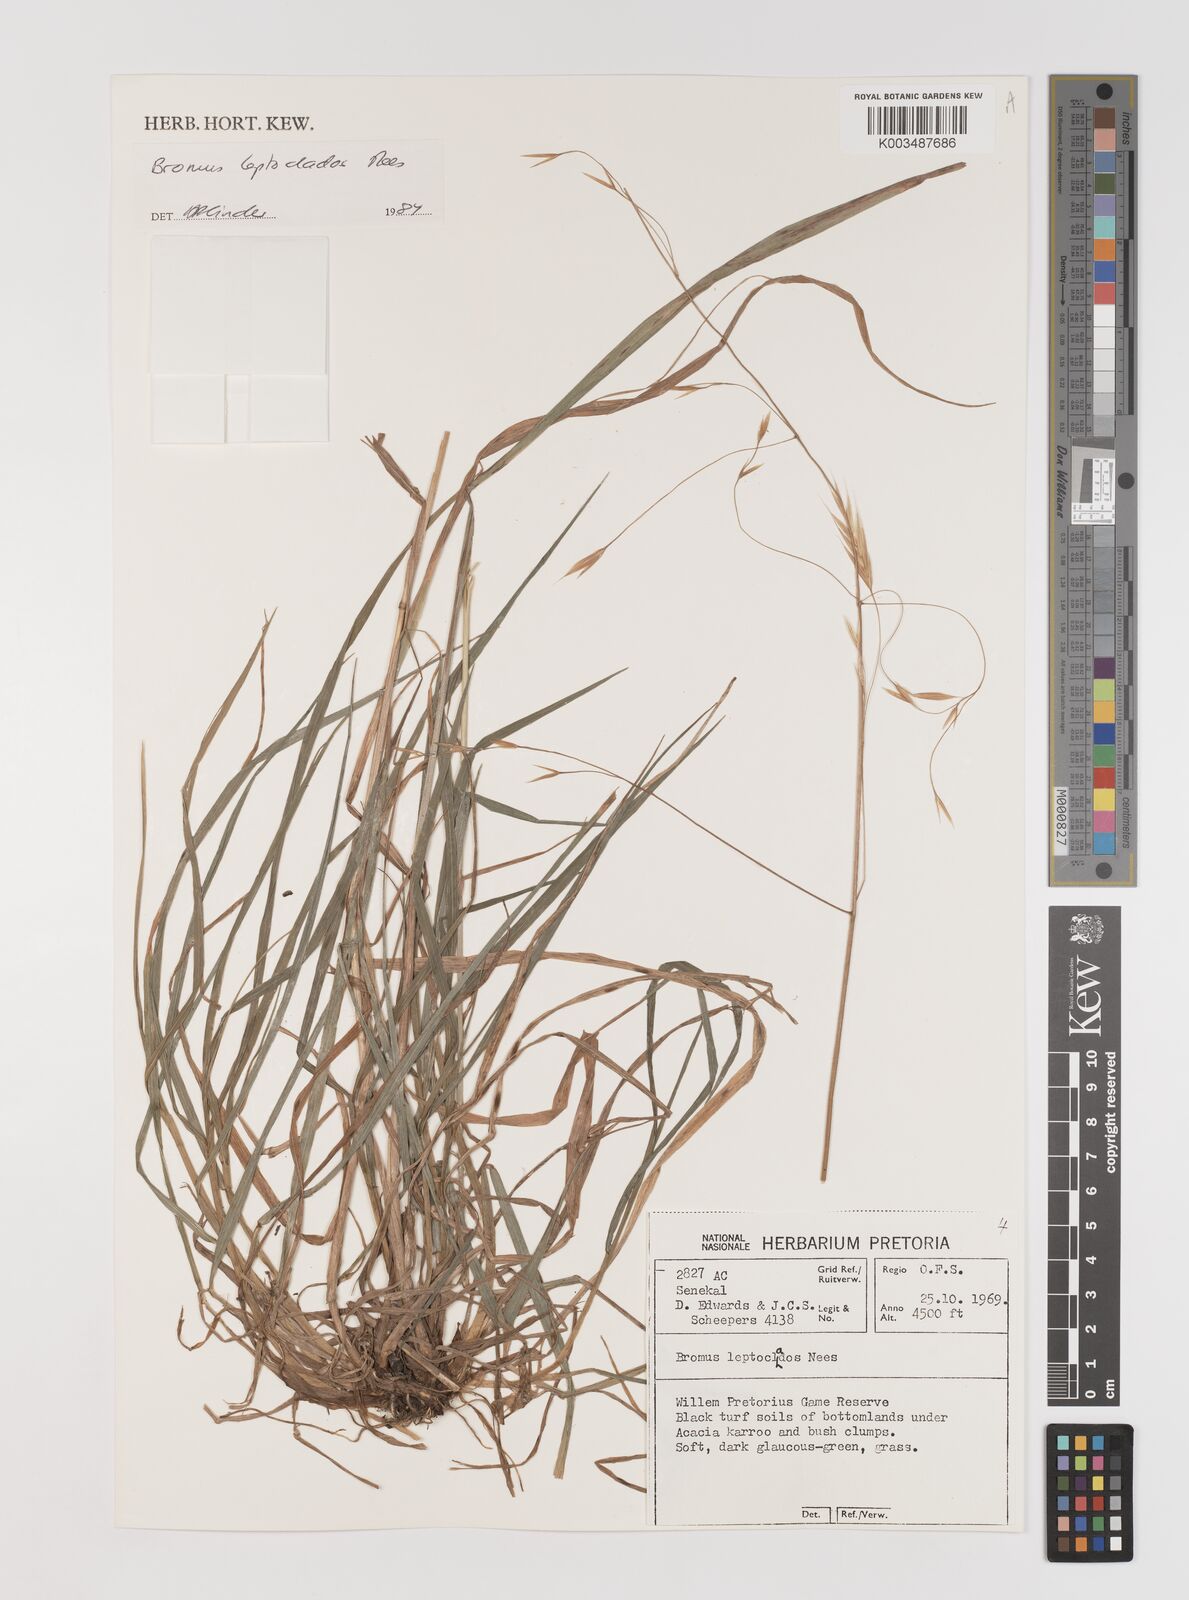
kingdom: Plantae
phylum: Tracheophyta
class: Liliopsida
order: Poales
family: Poaceae
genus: Bromus
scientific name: Bromus leptoclados
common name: Mountain bromegrass
